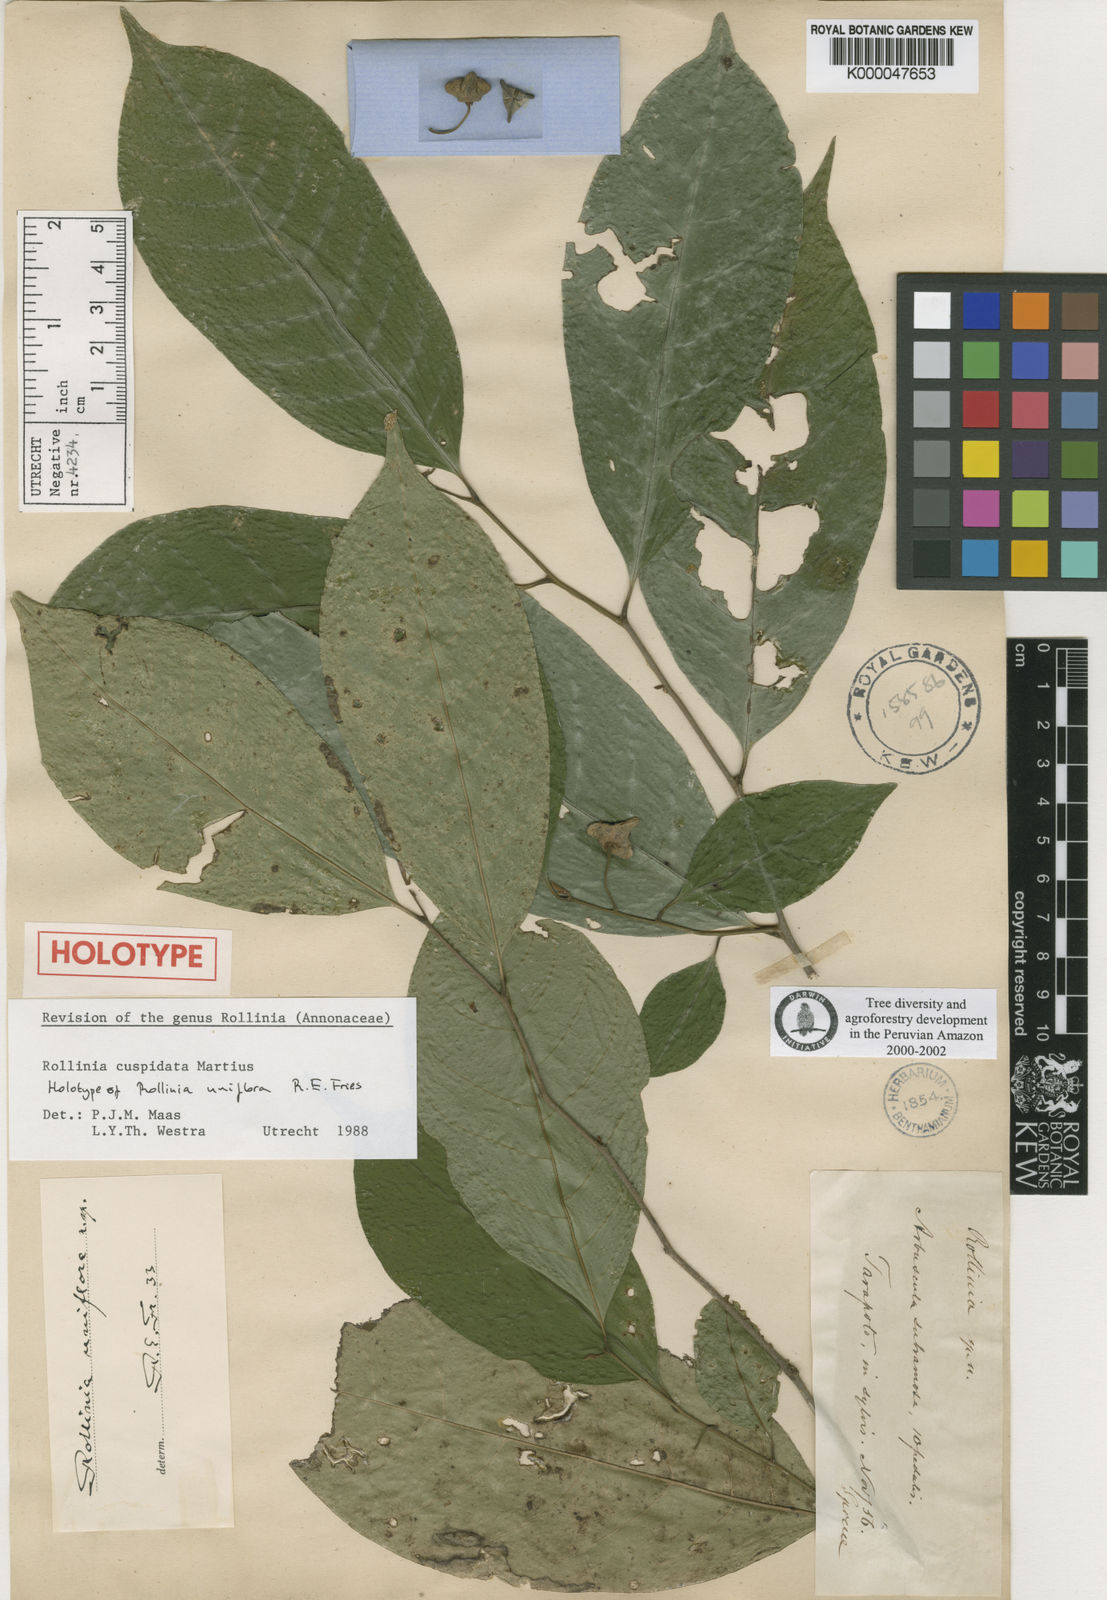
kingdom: Plantae
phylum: Tracheophyta
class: Magnoliopsida
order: Magnoliales
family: Annonaceae
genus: Annona
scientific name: Annona cuspidata
